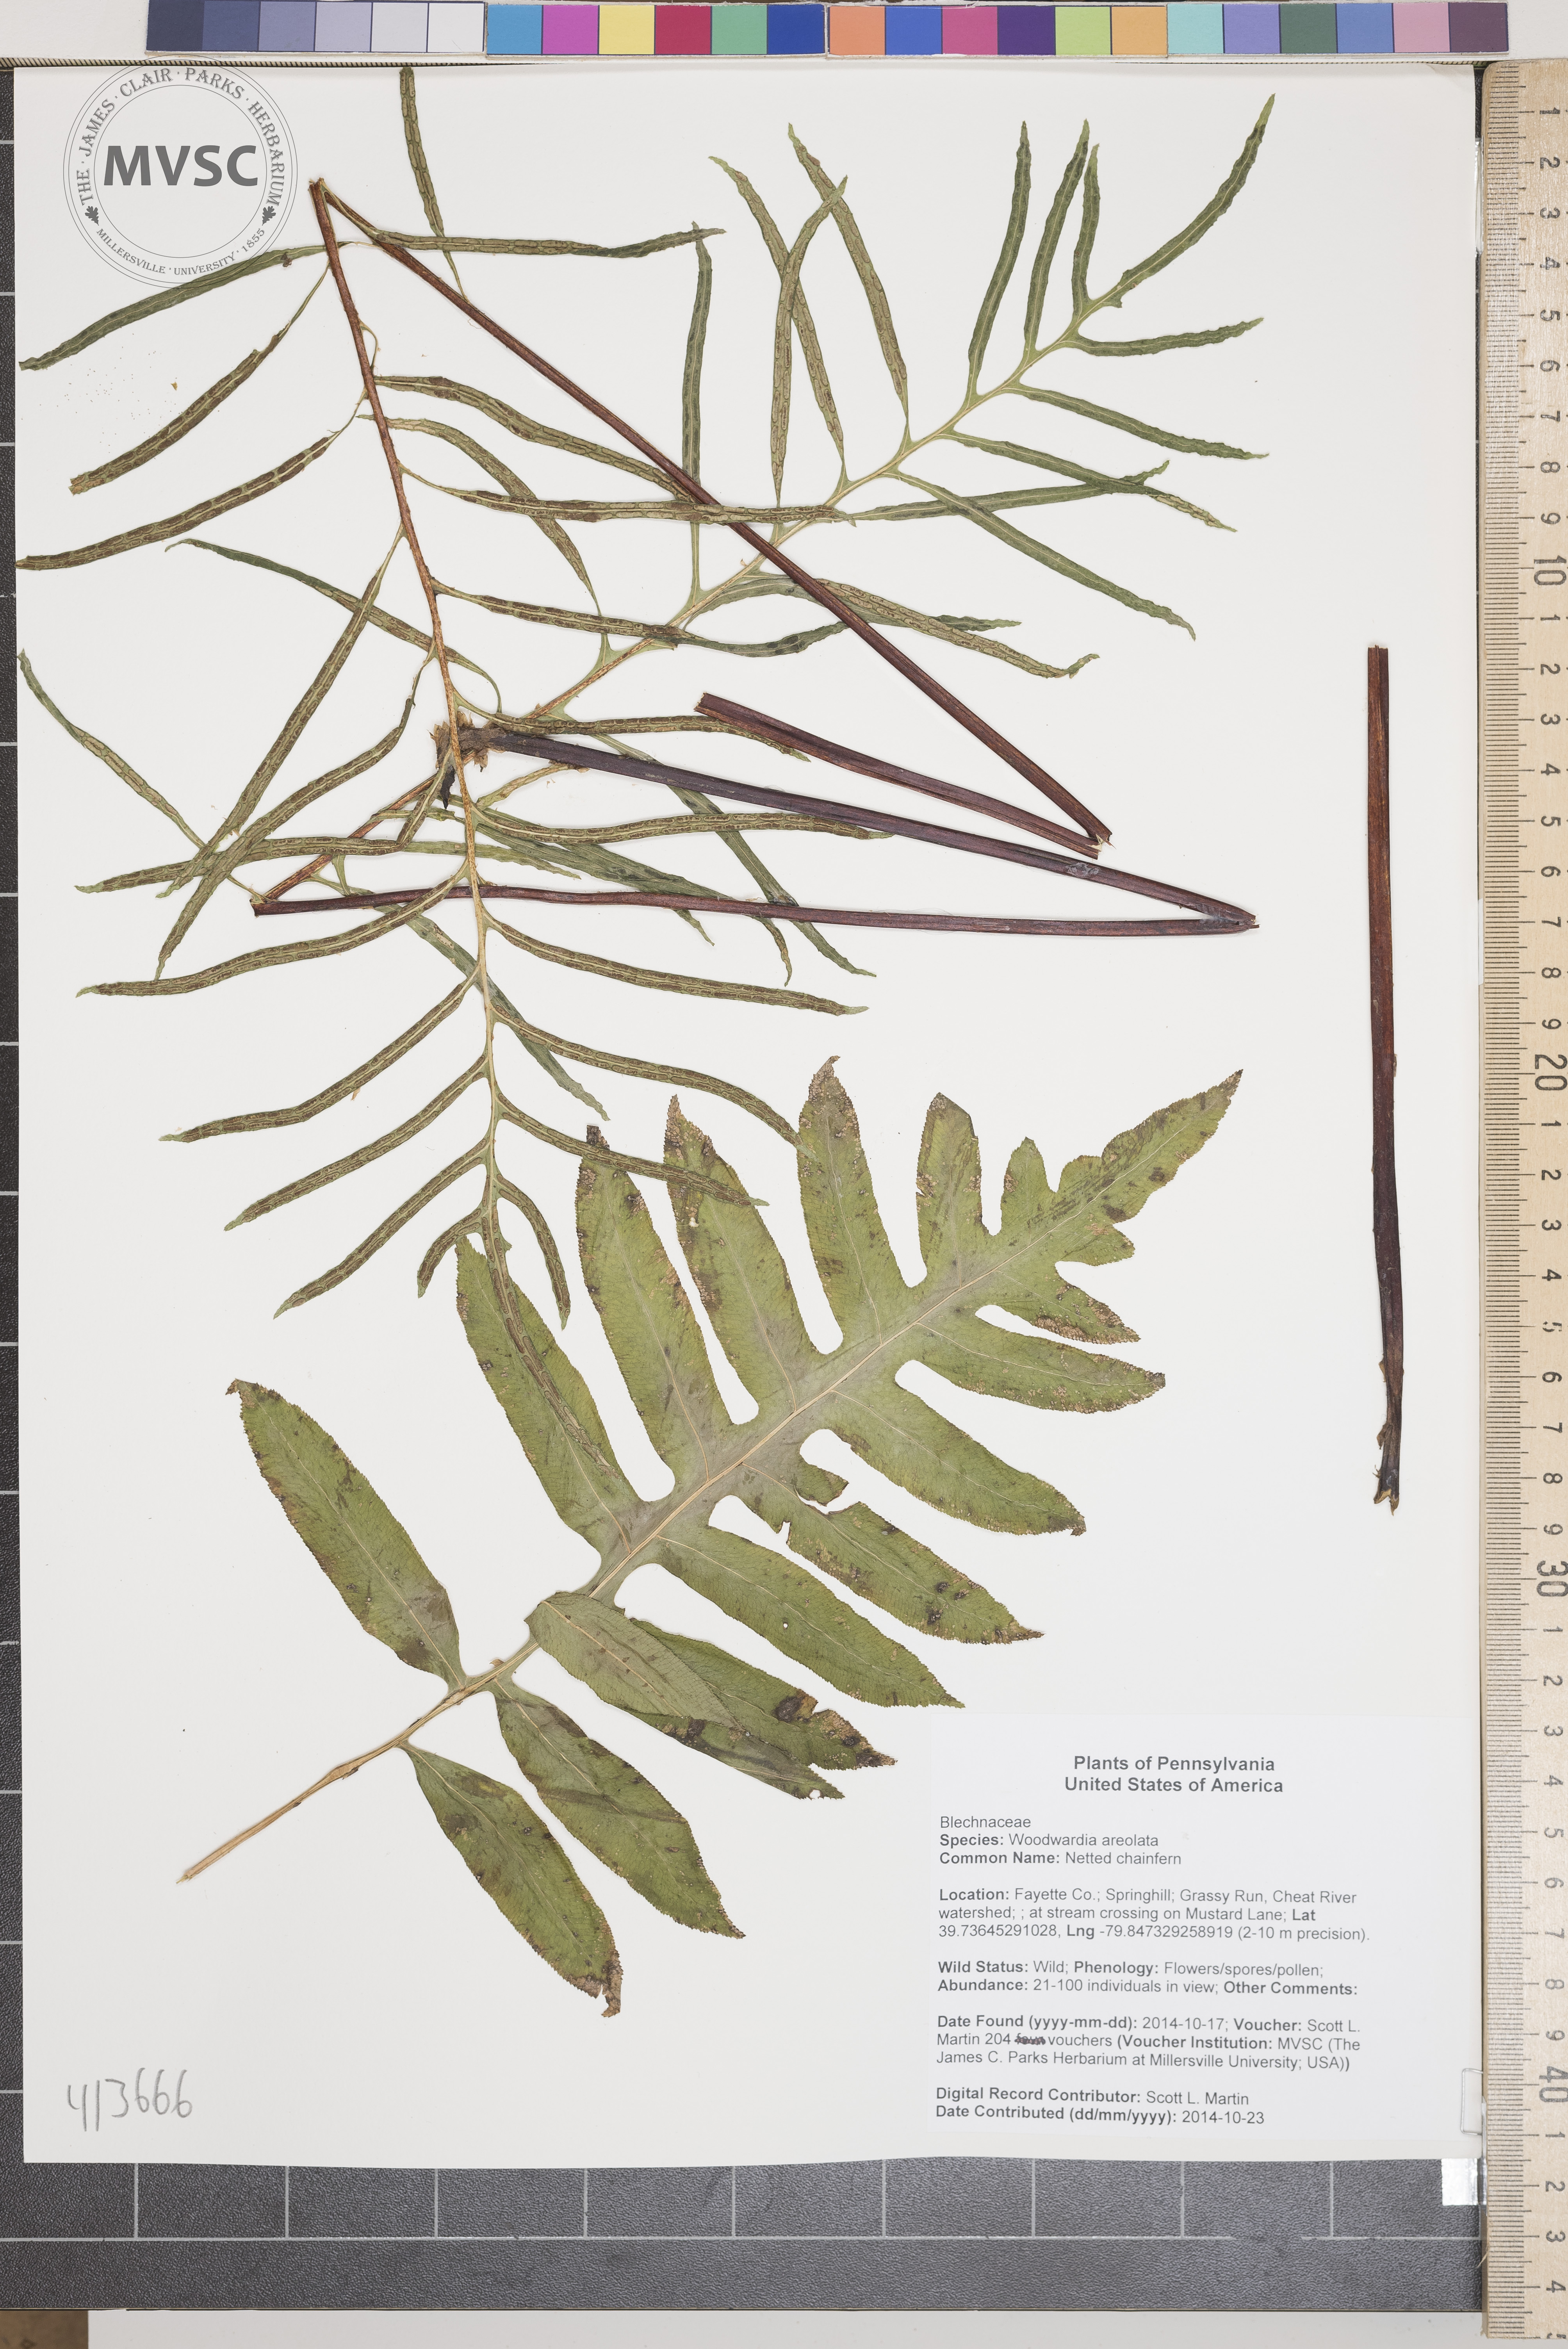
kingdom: Plantae
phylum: Tracheophyta
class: Polypodiopsida
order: Polypodiales
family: Blechnaceae
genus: Lorinseria
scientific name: Lorinseria areolata
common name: Netted chainfern
